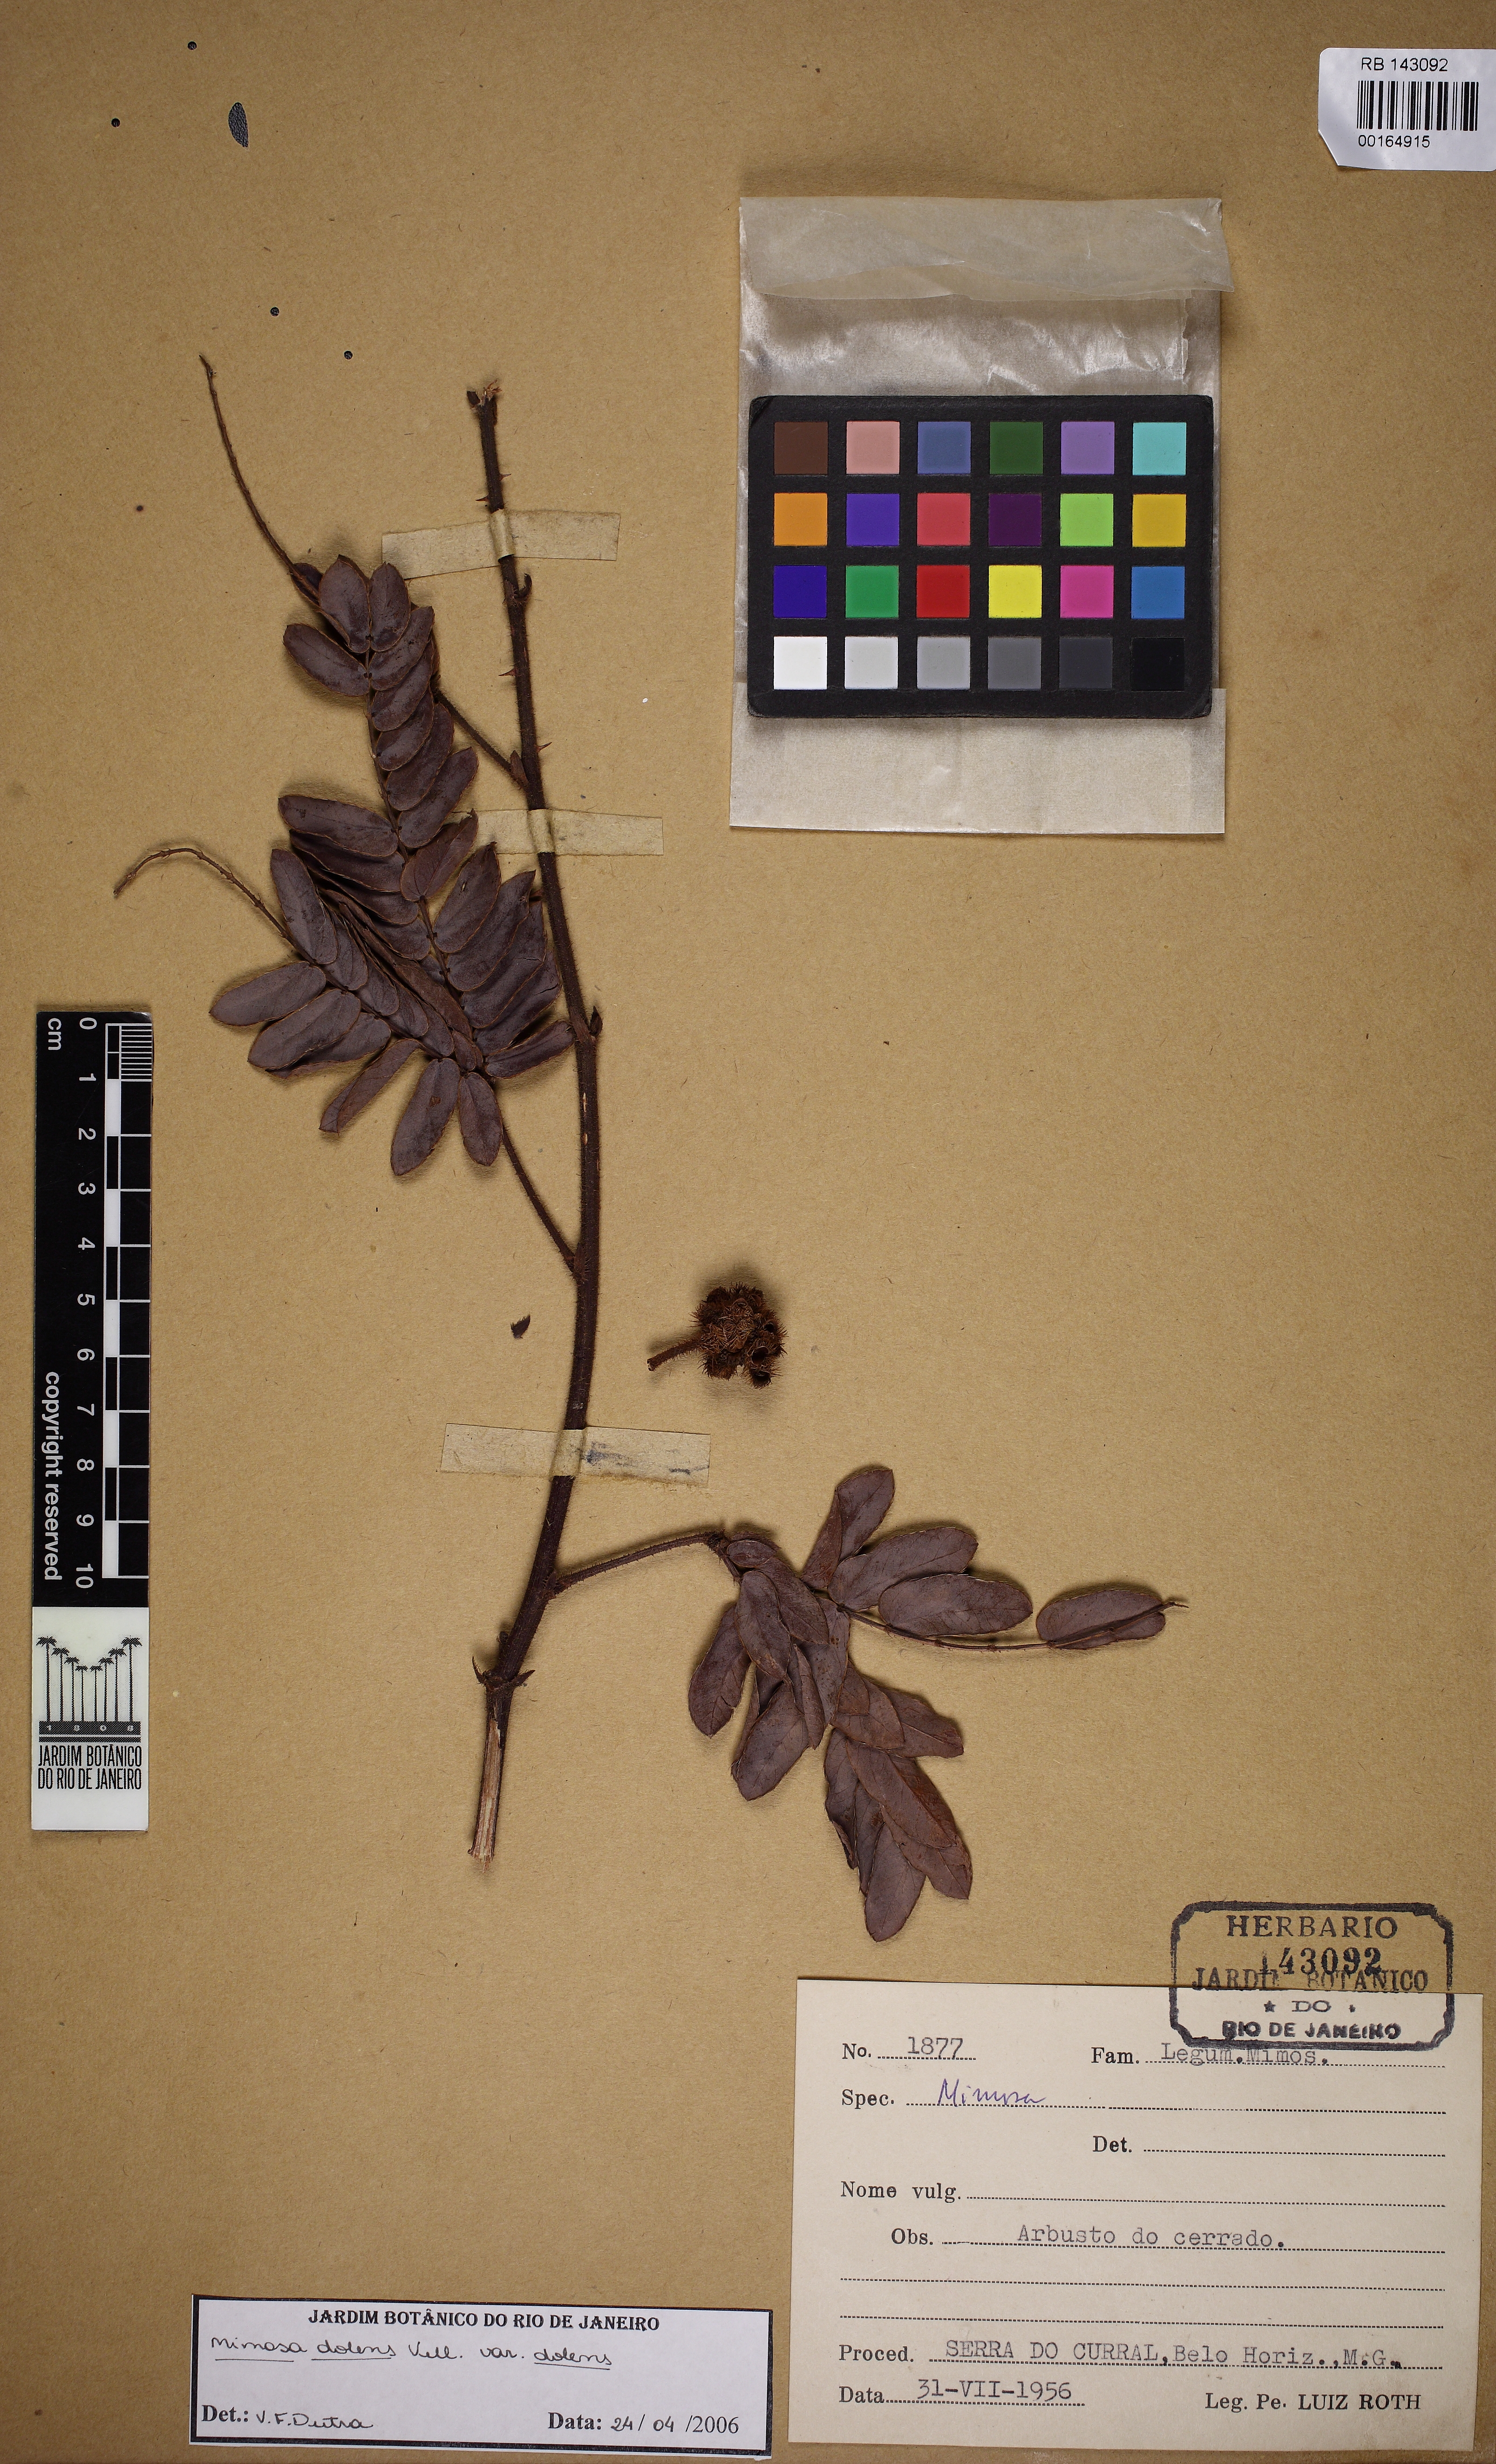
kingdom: Plantae
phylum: Tracheophyta
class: Magnoliopsida
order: Fabales
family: Fabaceae
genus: Mimosa
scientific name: Mimosa dolens
